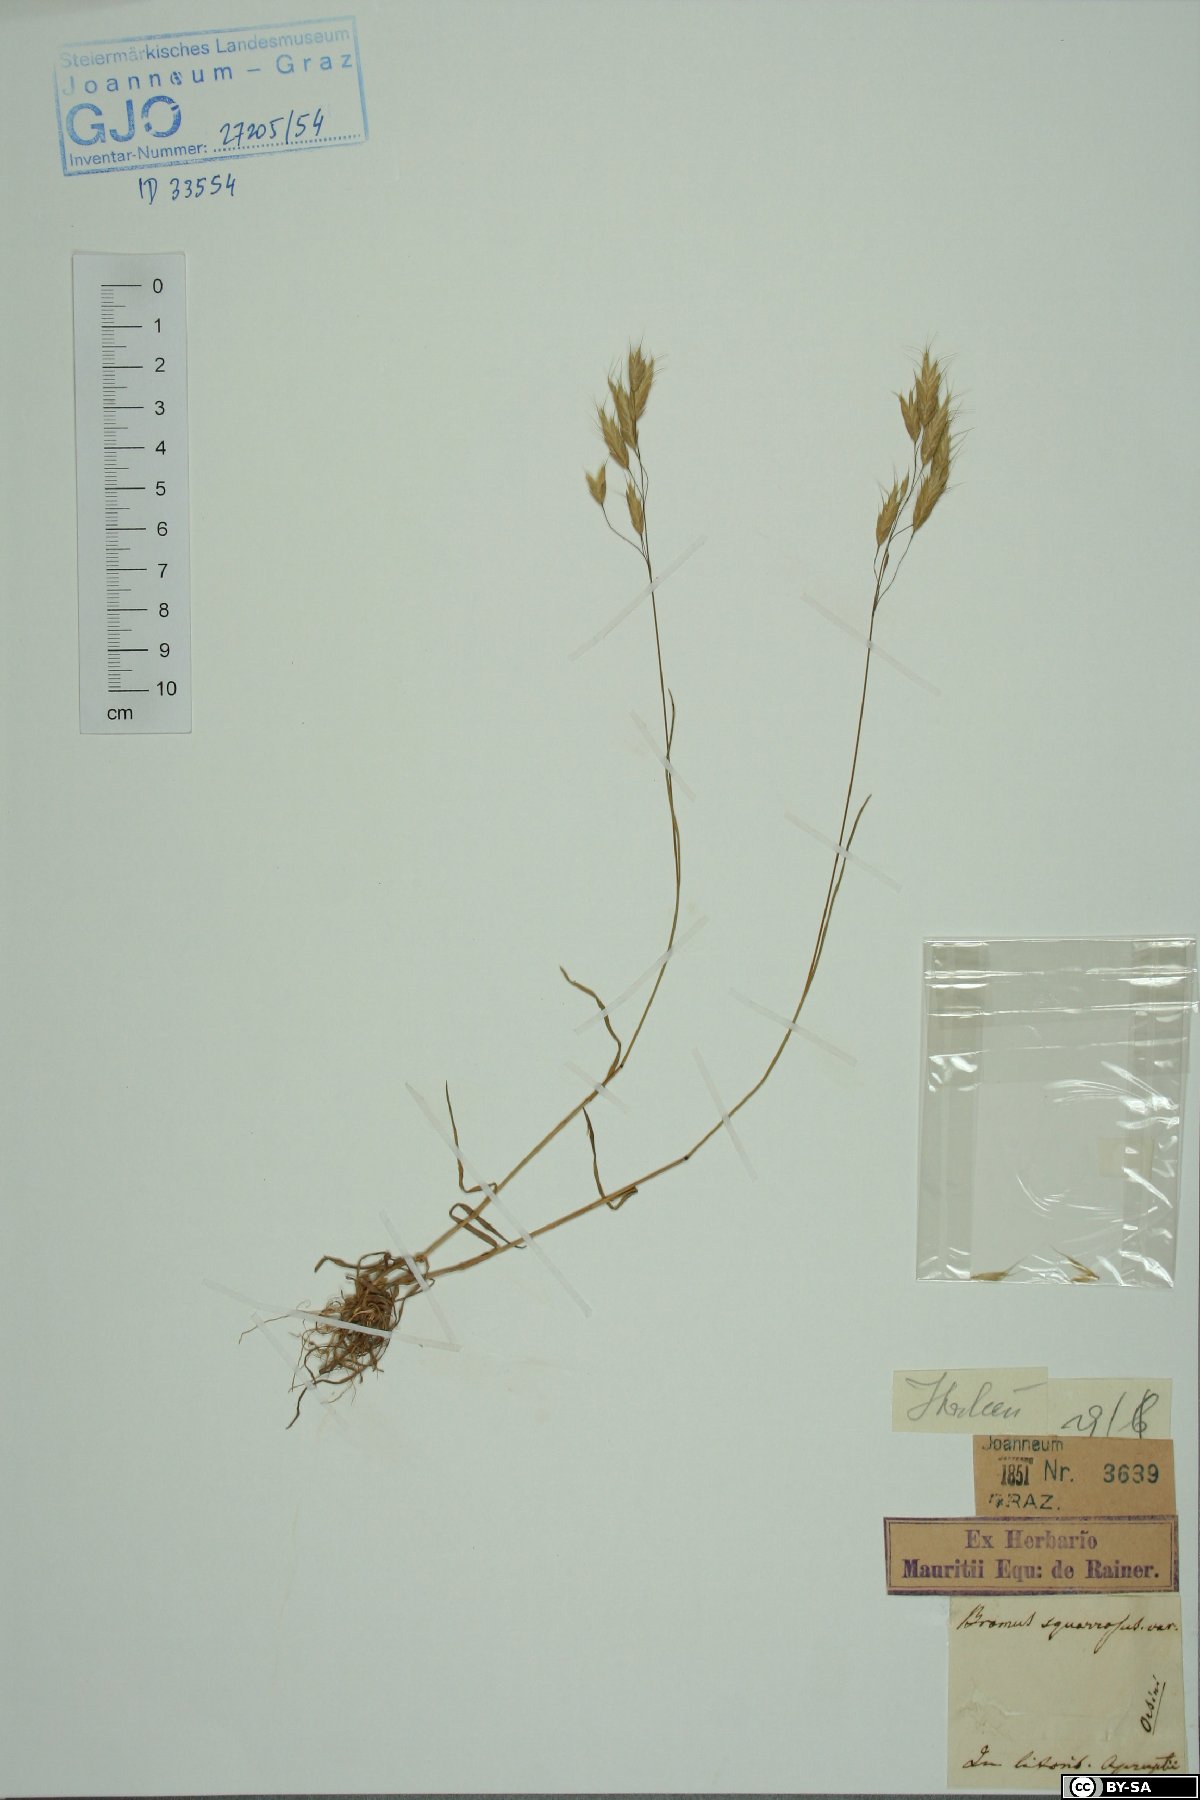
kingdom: Plantae
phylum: Tracheophyta
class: Liliopsida
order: Poales
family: Poaceae
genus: Bromus
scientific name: Bromus squarrosus
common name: Corn brome
